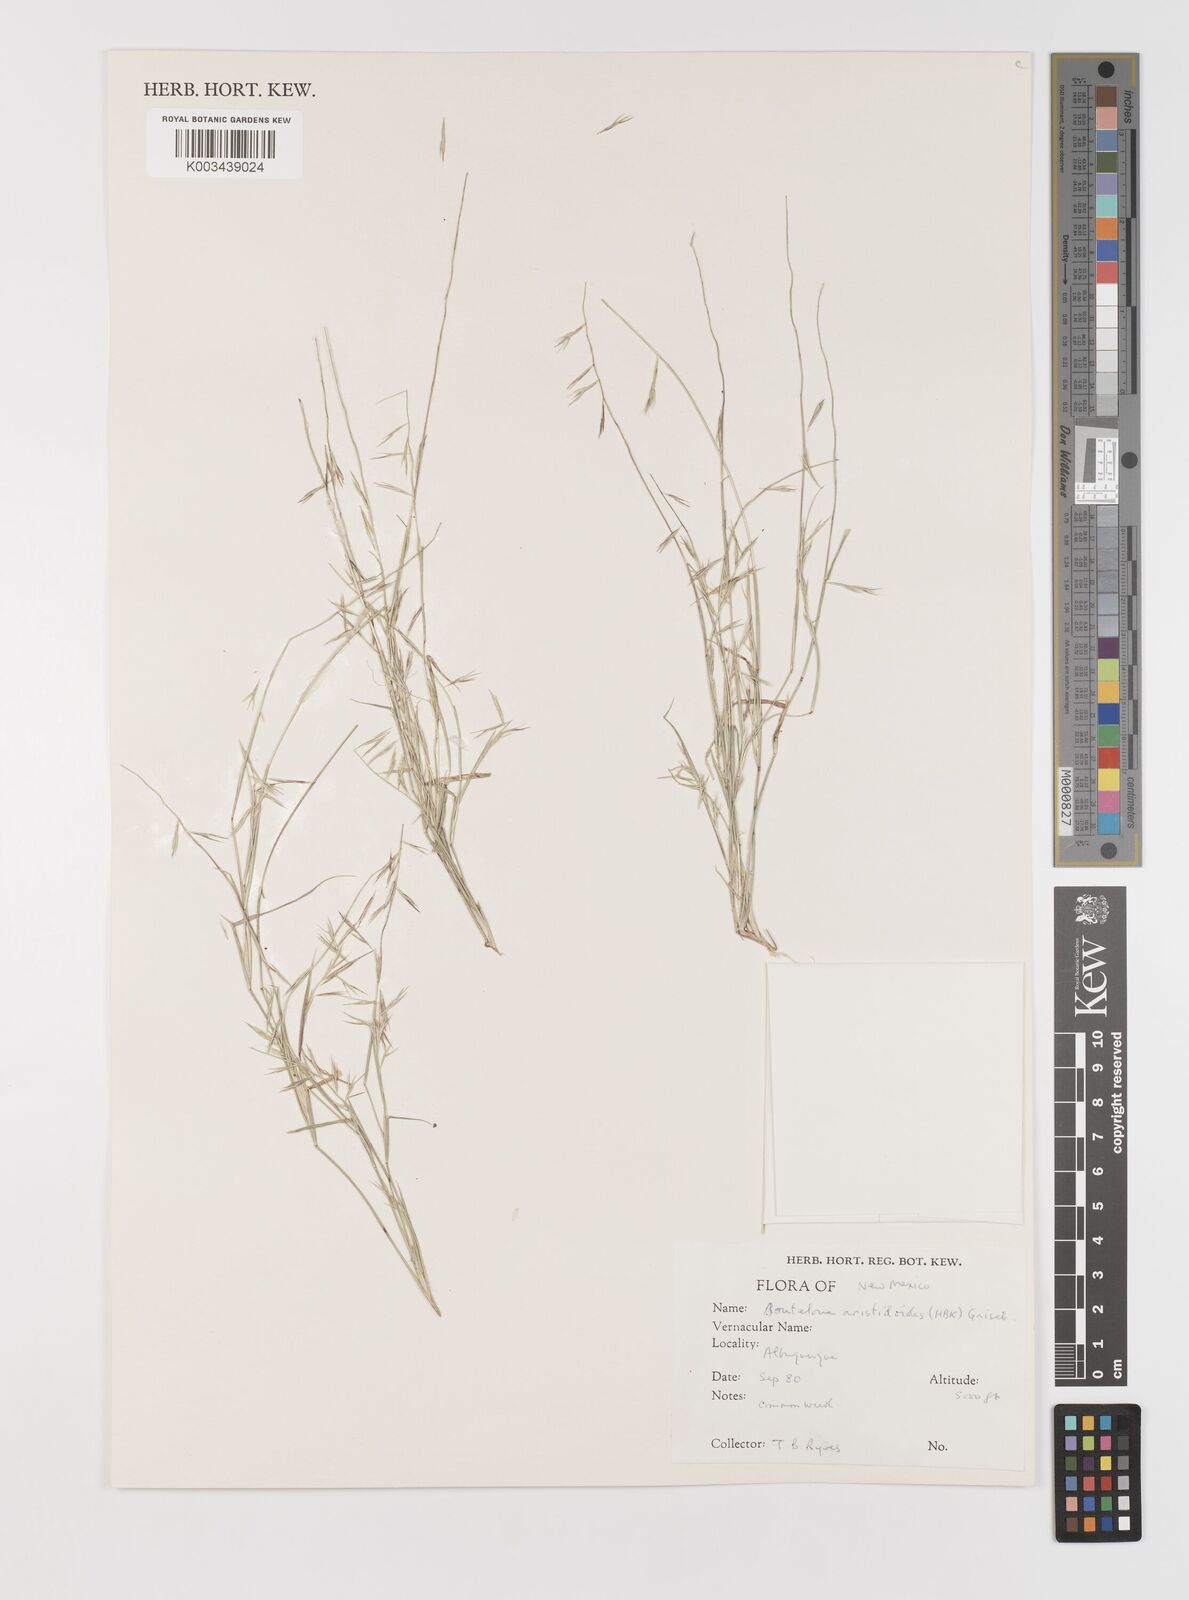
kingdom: Plantae
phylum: Tracheophyta
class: Liliopsida
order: Poales
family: Poaceae
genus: Bouteloua
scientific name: Bouteloua aristidoides
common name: Needle grama
